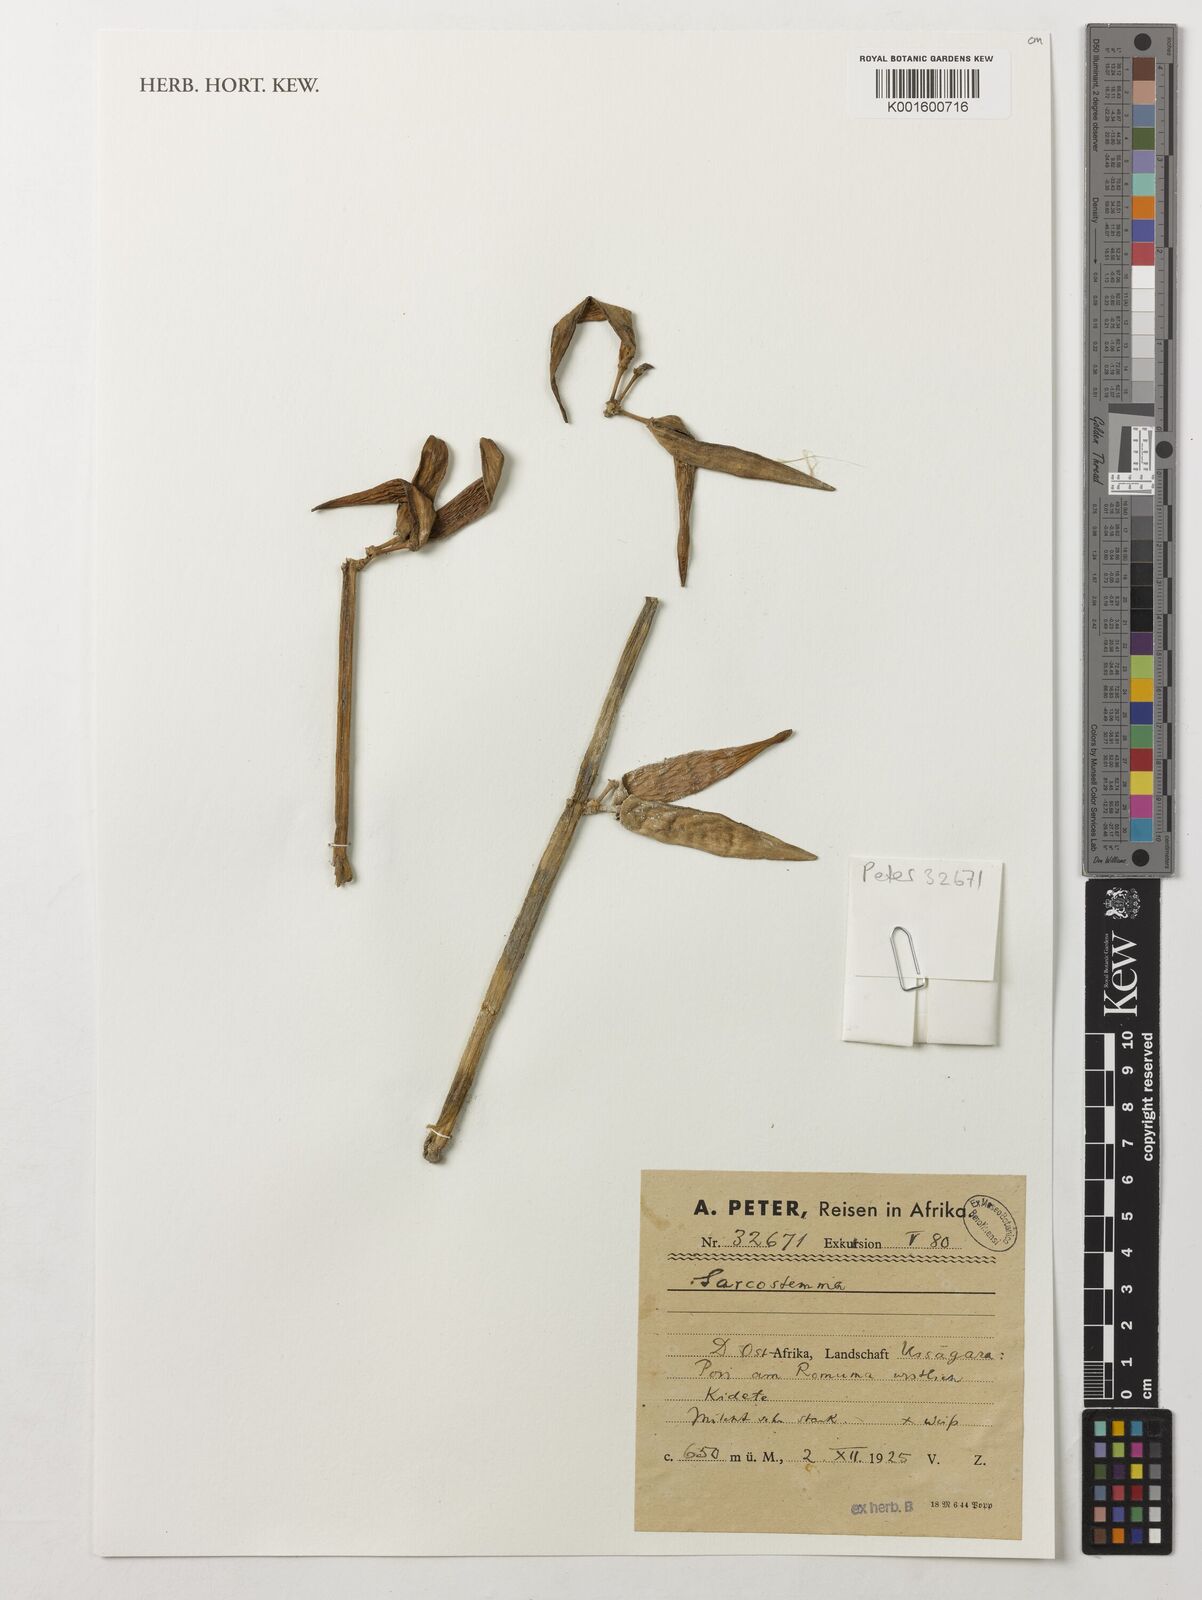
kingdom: Plantae
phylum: Tracheophyta
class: Magnoliopsida
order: Gentianales
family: Apocynaceae
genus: Cynanchum
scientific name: Cynanchum
